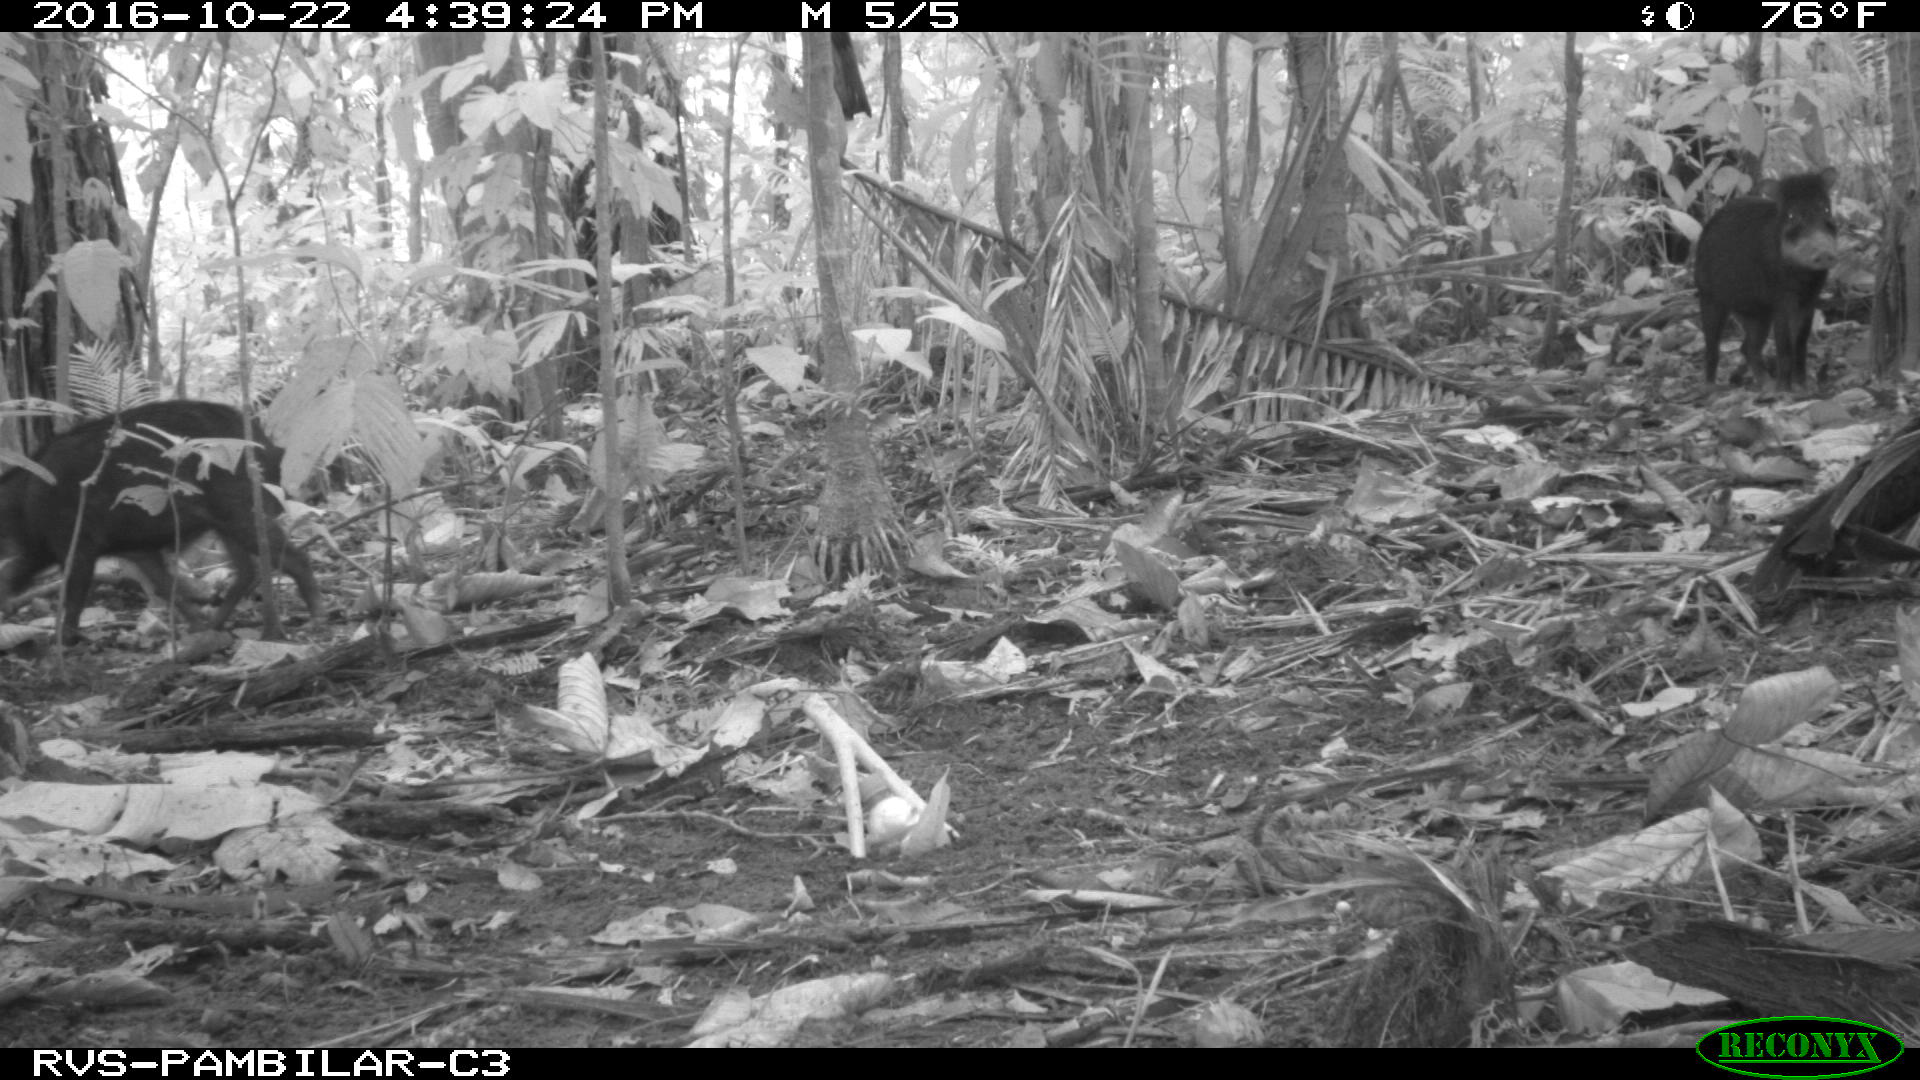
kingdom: Animalia
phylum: Chordata
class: Mammalia
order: Artiodactyla
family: Tayassuidae
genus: Tayassu
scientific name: Tayassu pecari
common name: White-lipped peccary
